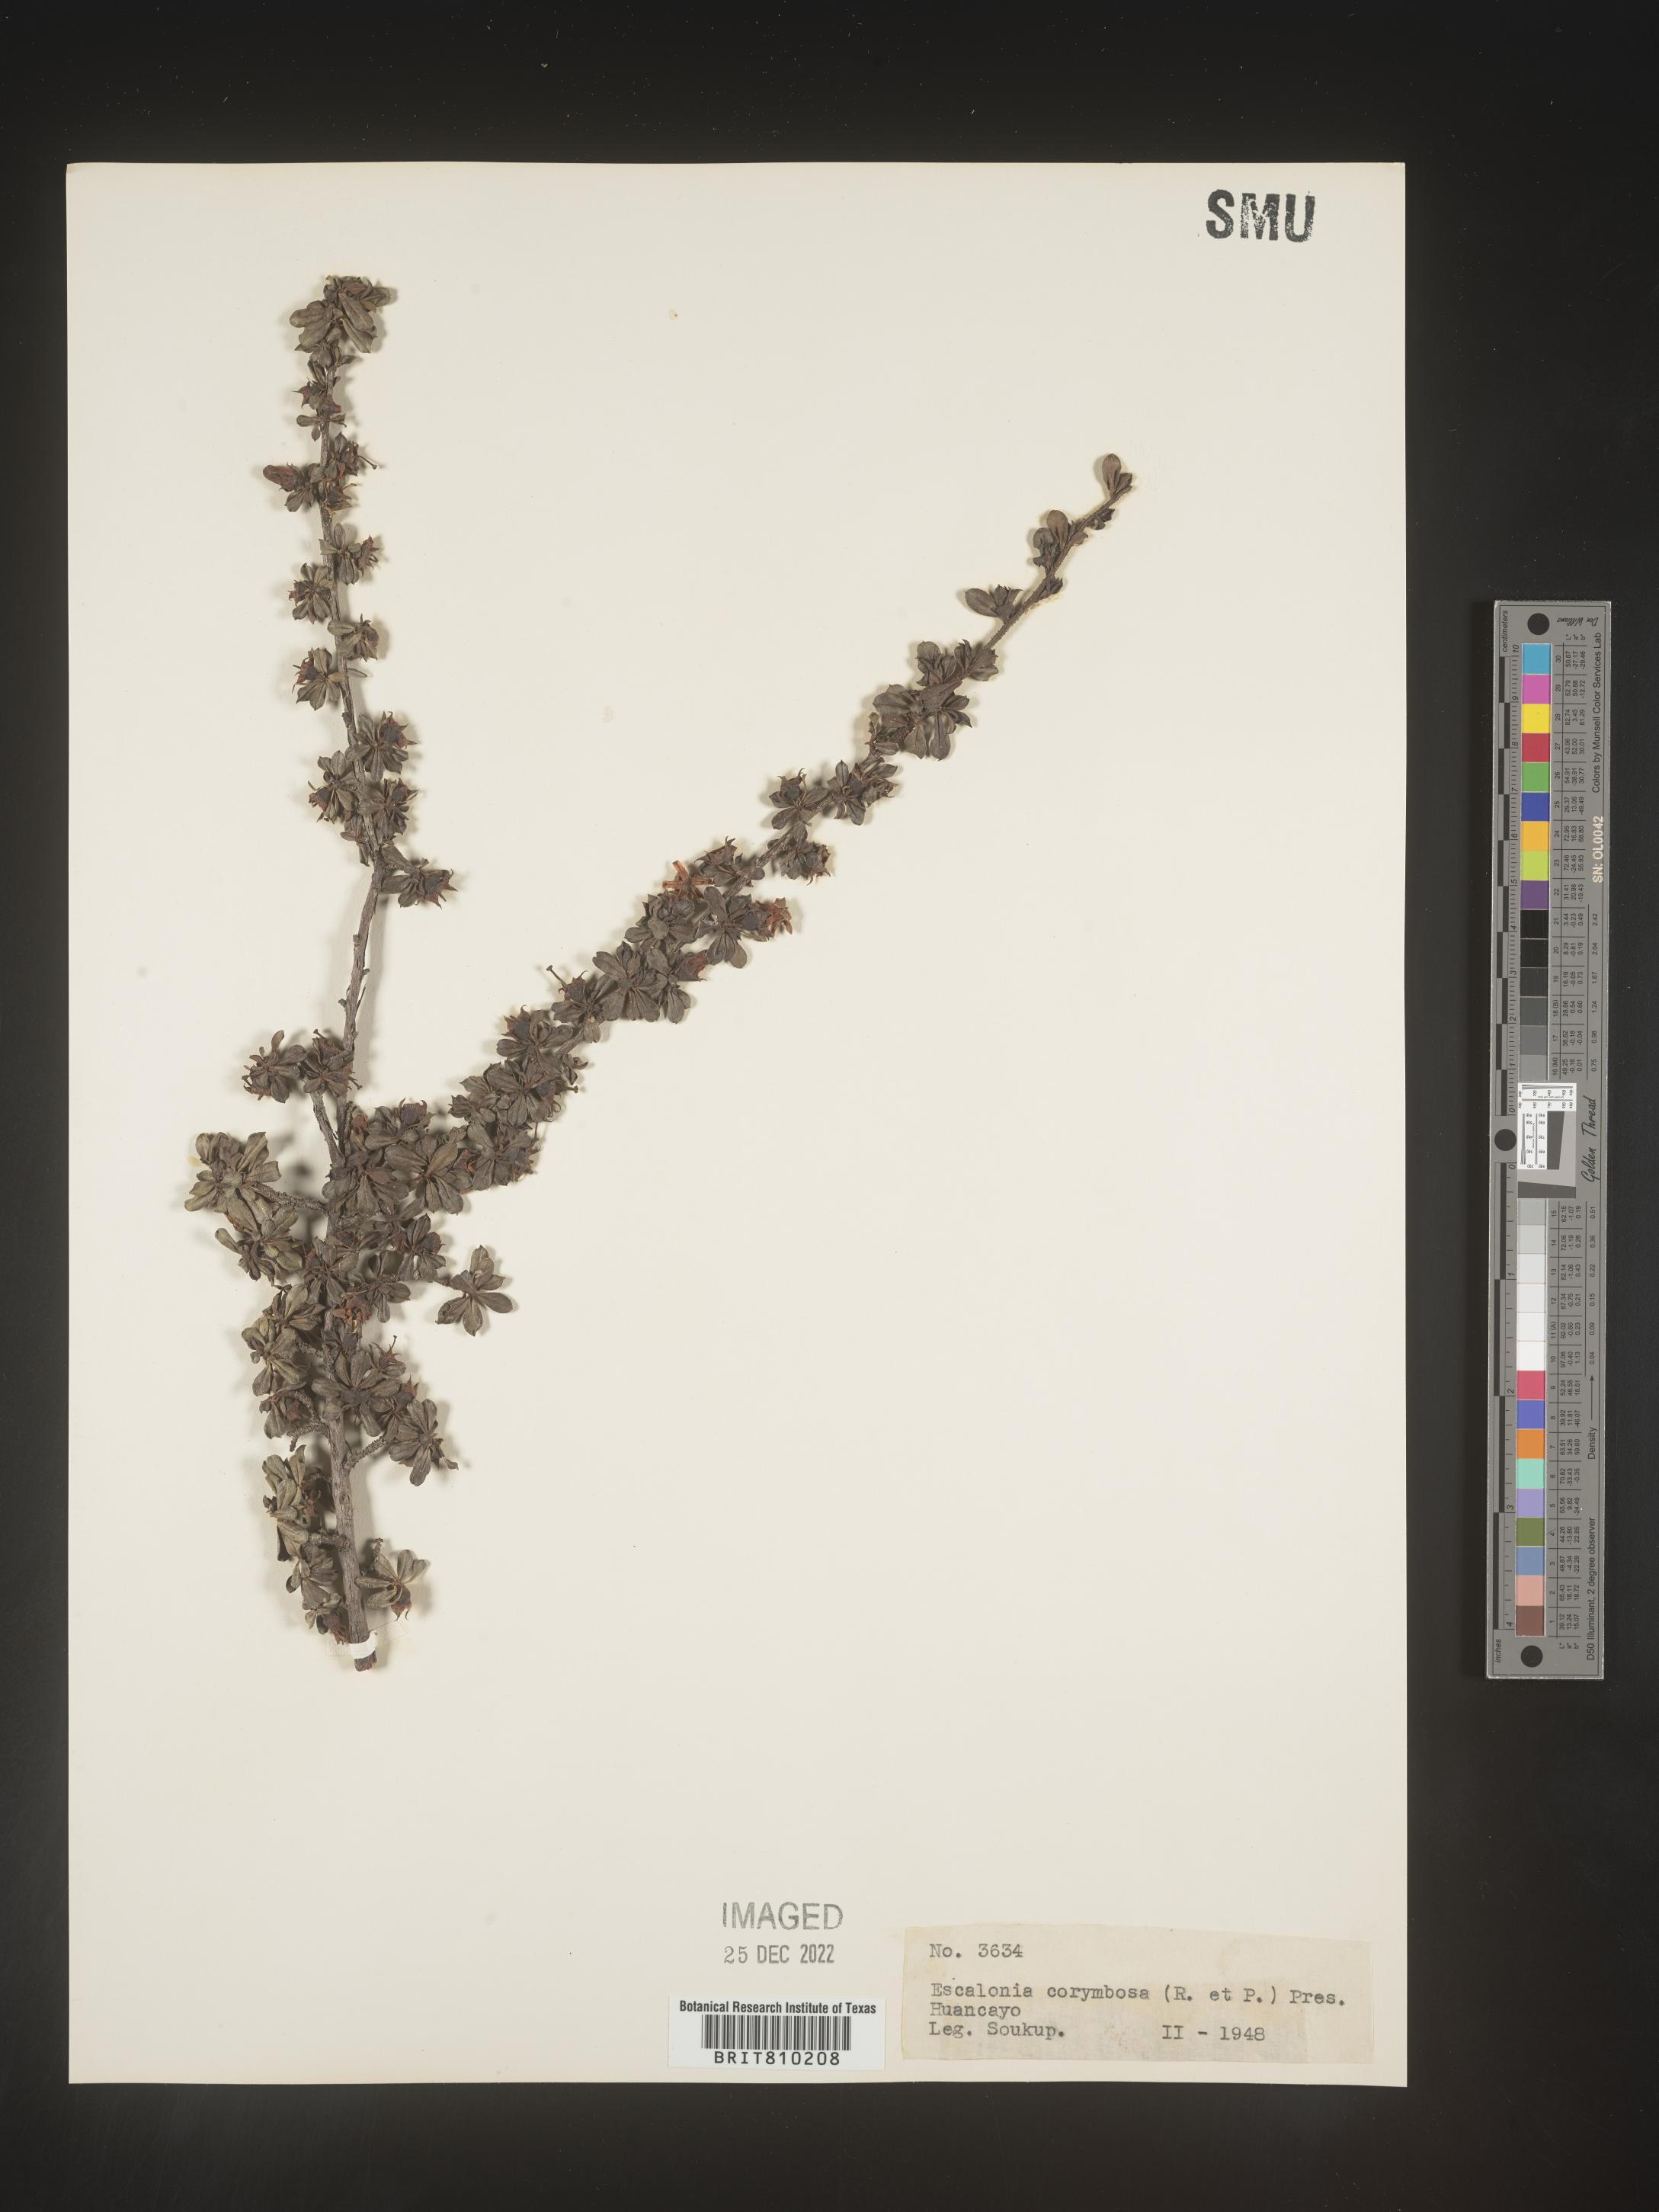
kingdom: Plantae
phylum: Tracheophyta
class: Magnoliopsida
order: Escalloniales
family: Escalloniaceae
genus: Escallonia
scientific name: Escallonia
